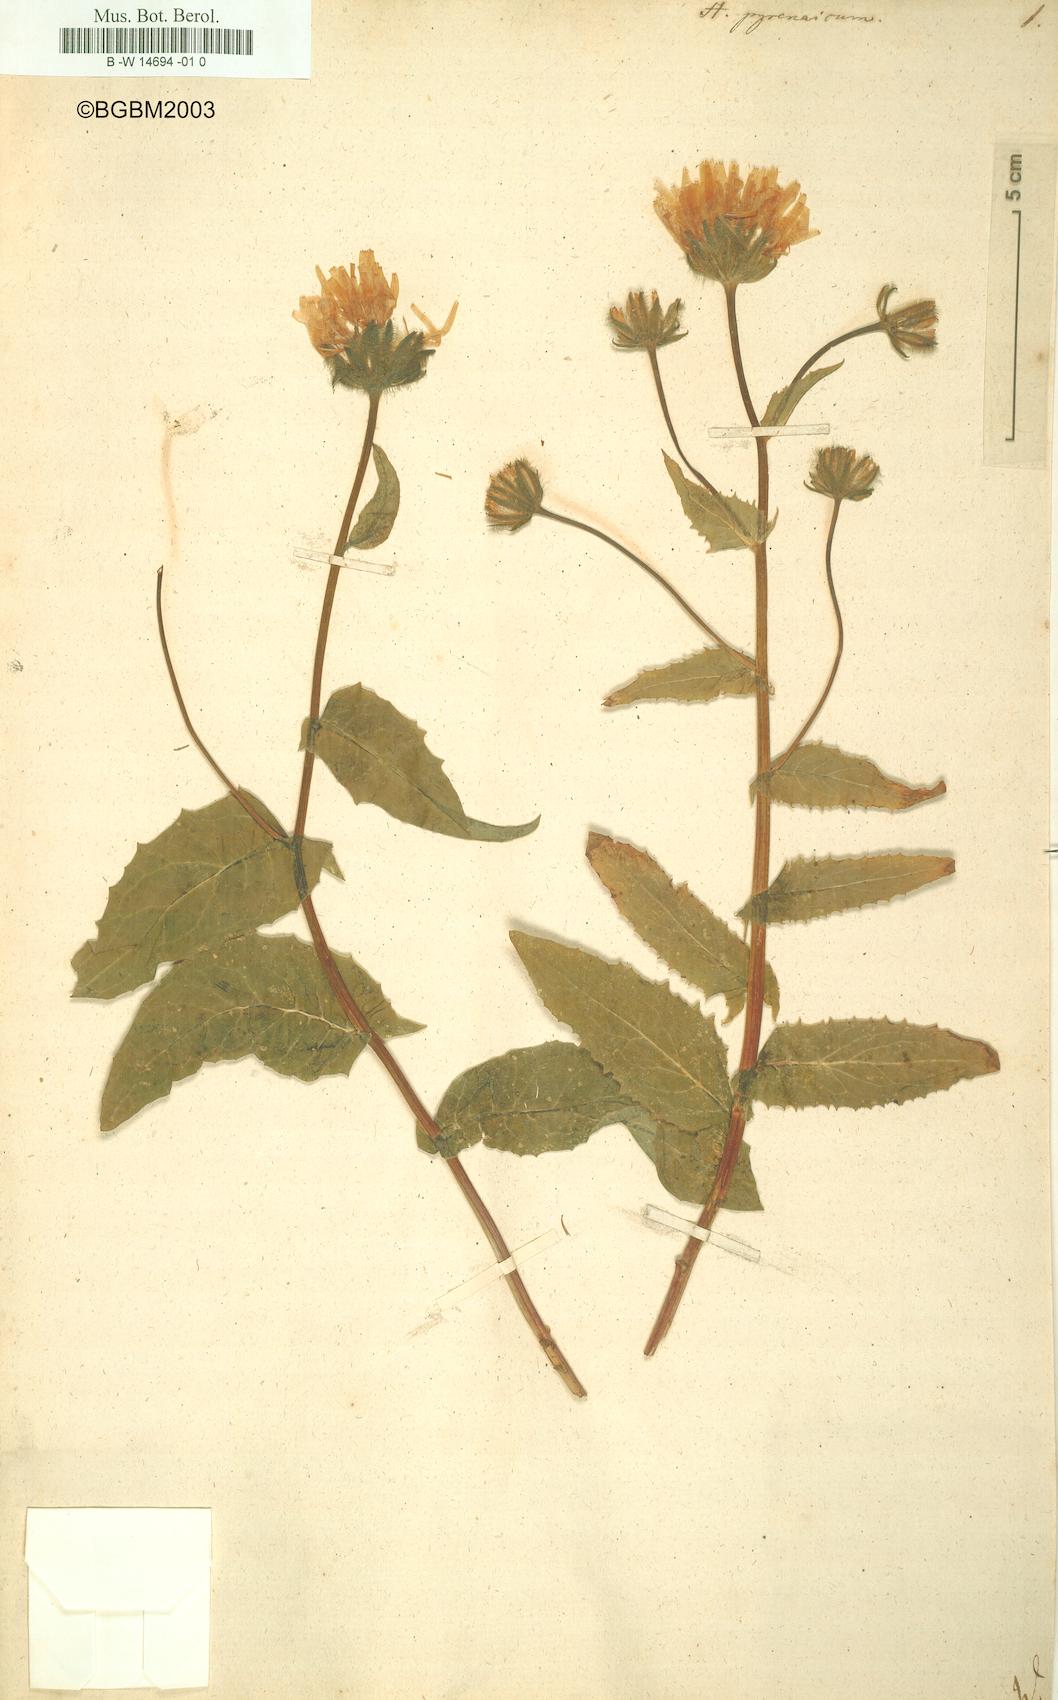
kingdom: Plantae
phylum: Tracheophyta
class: Magnoliopsida
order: Asterales
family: Asteraceae
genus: Hieracium
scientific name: Hieracium pyrenaicum
